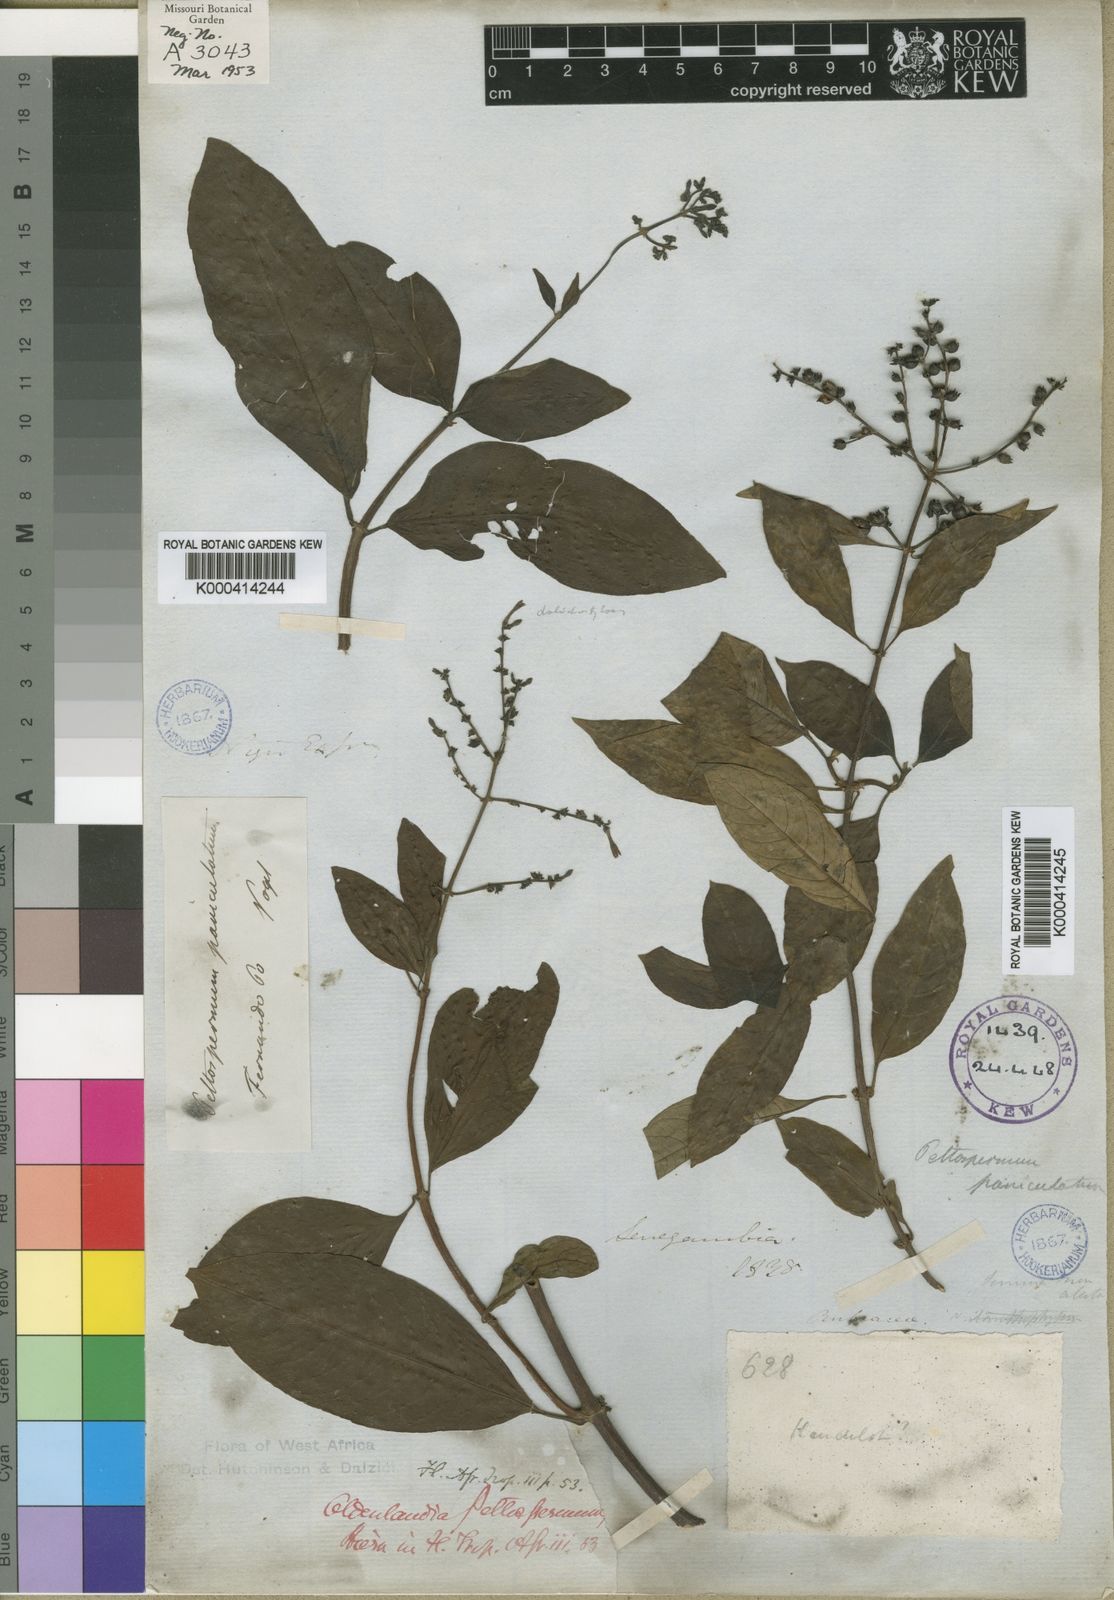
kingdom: Plantae
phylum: Tracheophyta
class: Magnoliopsida
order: Gentianales
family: Rubiaceae
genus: Sacosperma
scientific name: Sacosperma paniculatum
